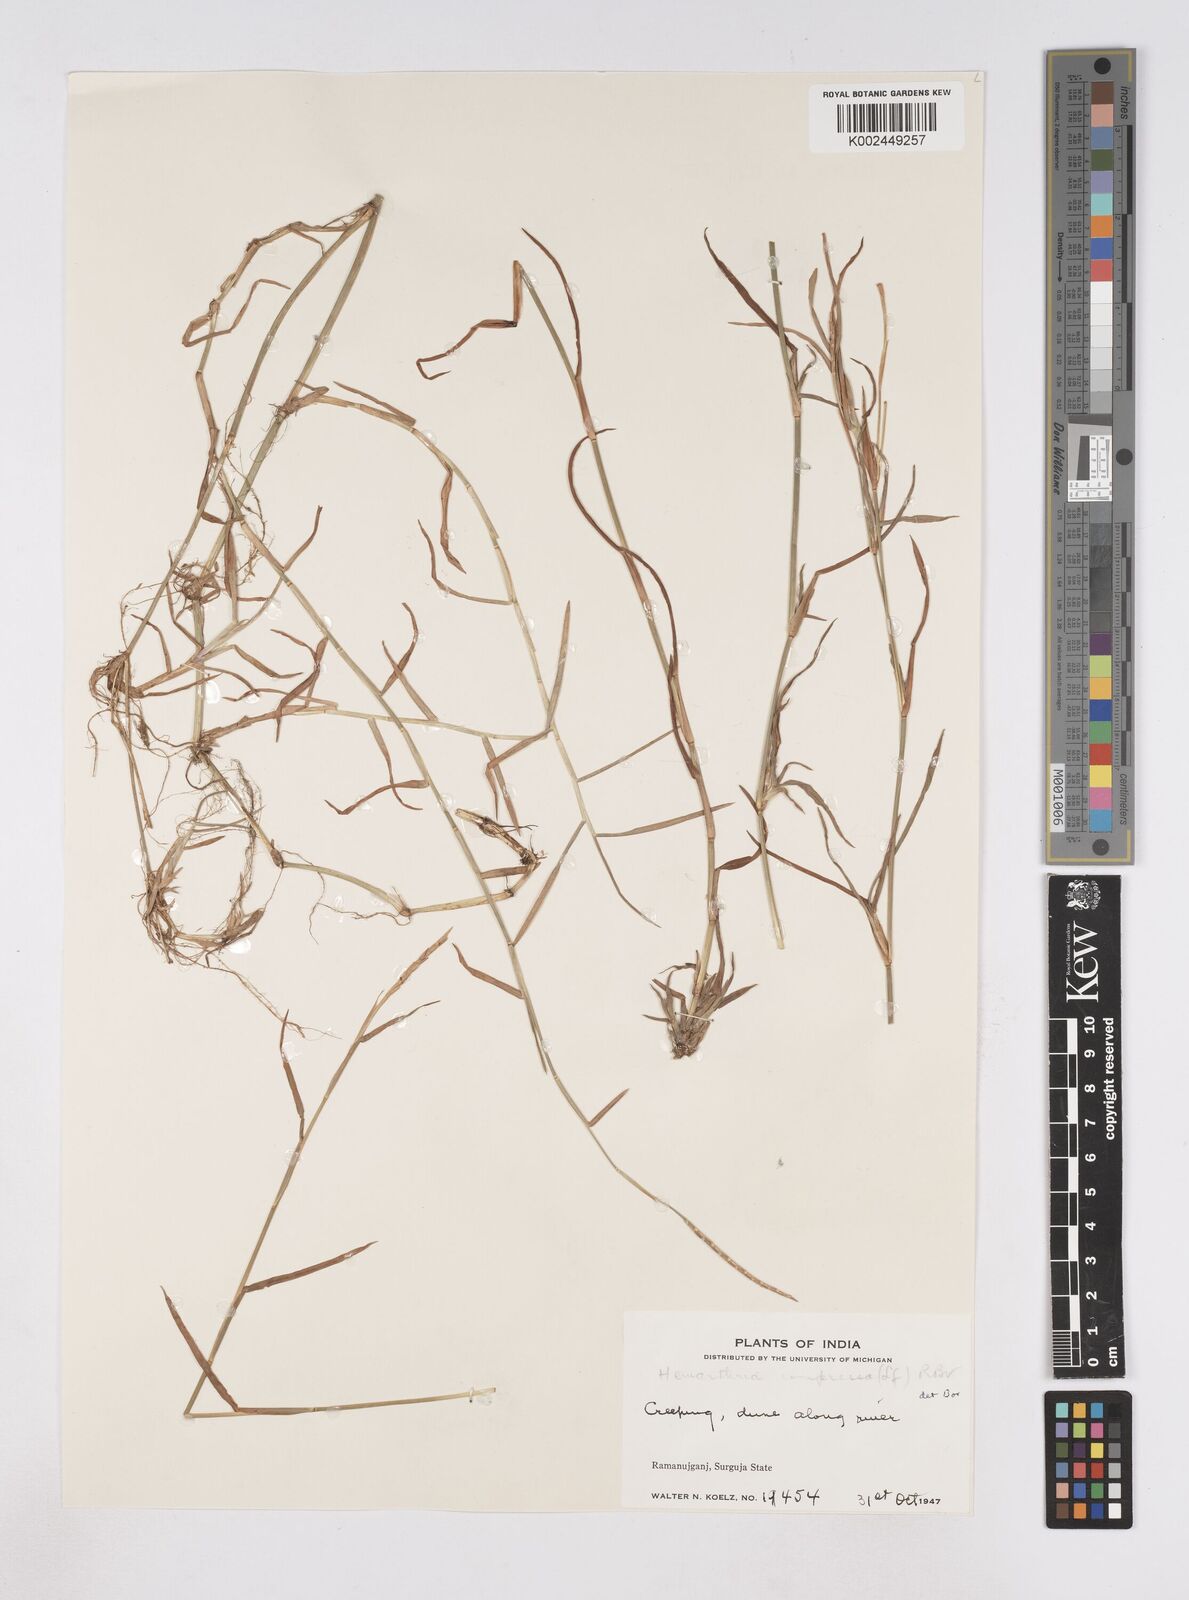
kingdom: Plantae
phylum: Tracheophyta
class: Liliopsida
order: Poales
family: Poaceae
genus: Hemarthria
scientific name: Hemarthria compressa
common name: Whip grass
